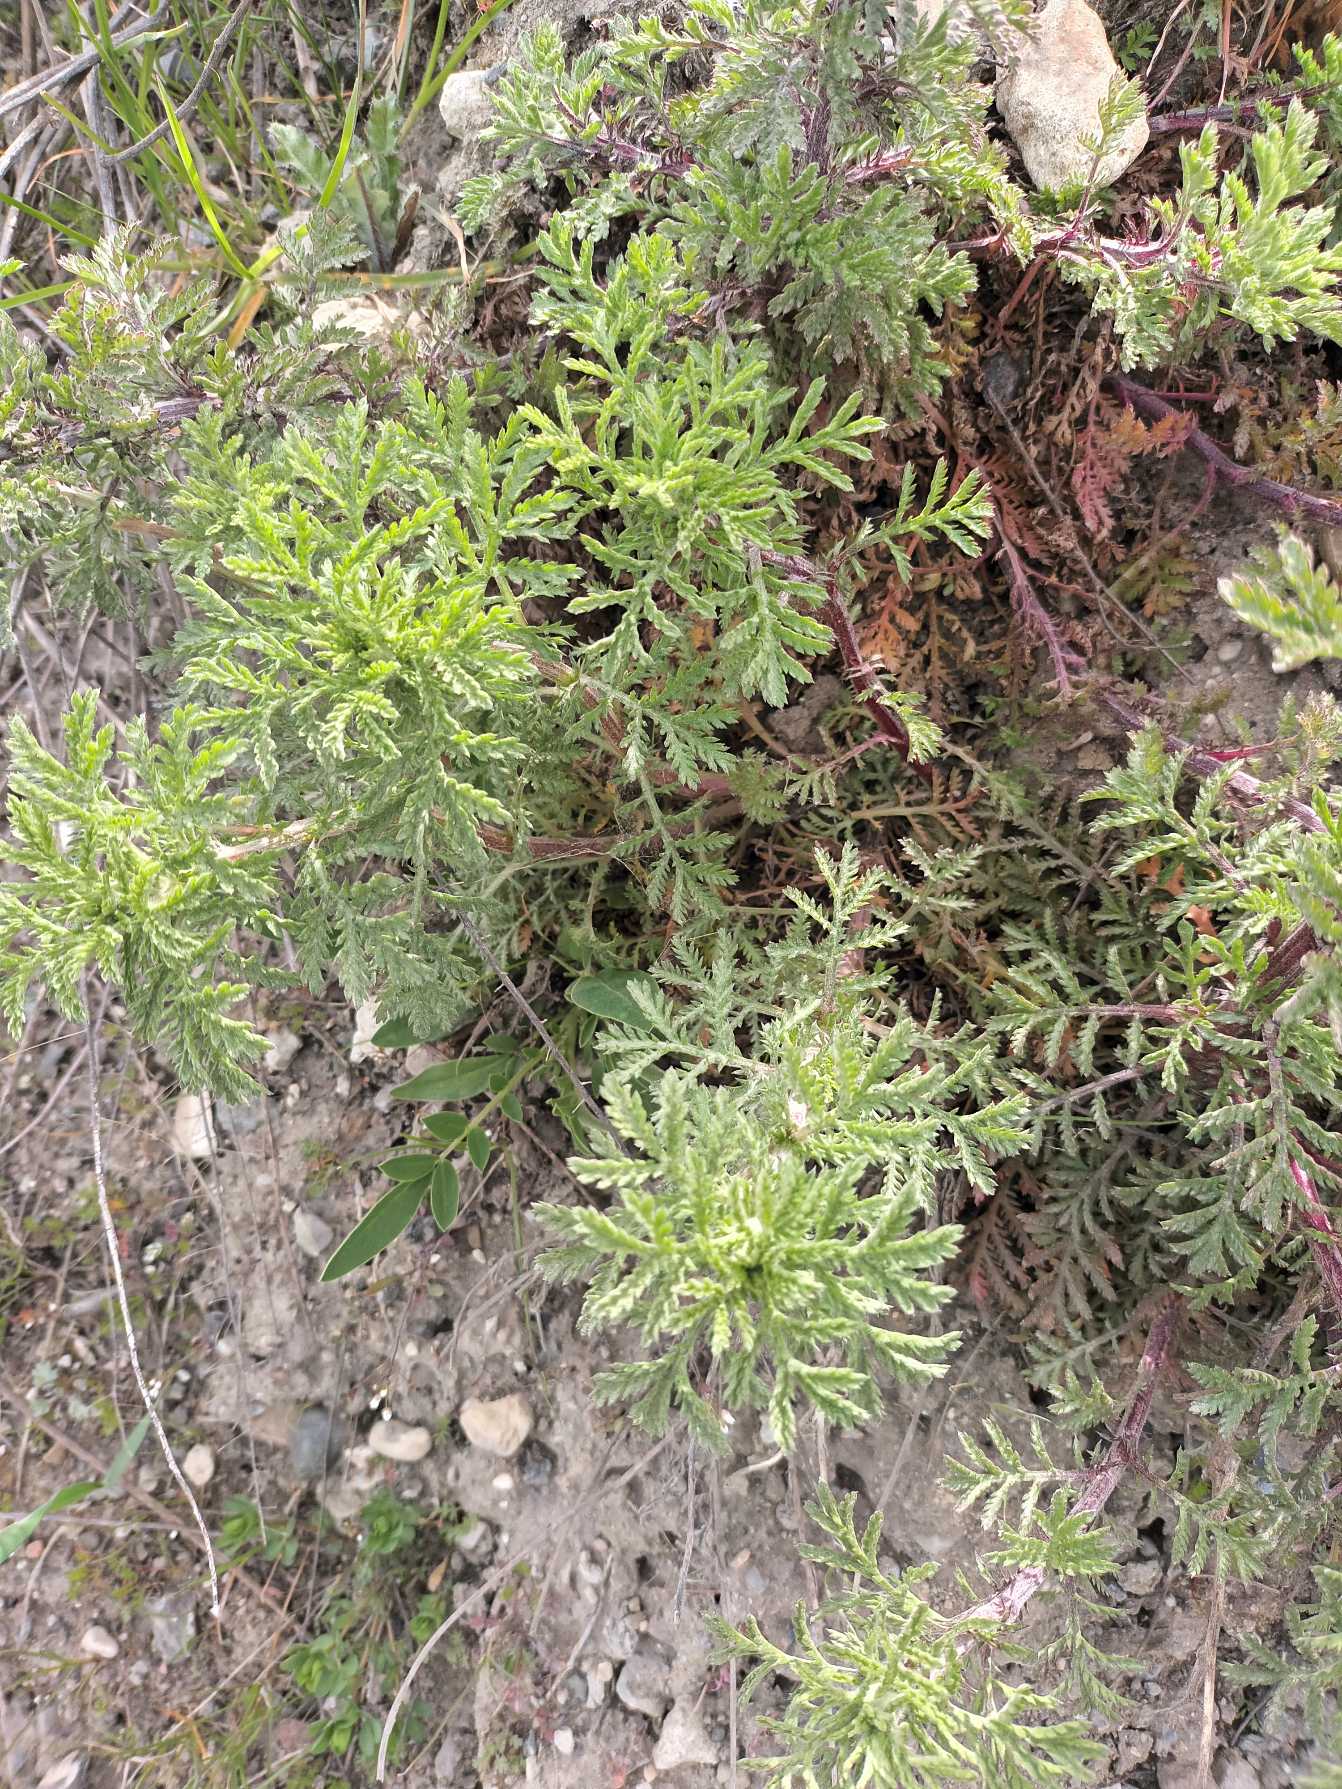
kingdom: Plantae
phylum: Tracheophyta
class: Magnoliopsida
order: Asterales
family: Asteraceae
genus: Cota
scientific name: Cota tinctoria
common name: Farve-gåseurt
